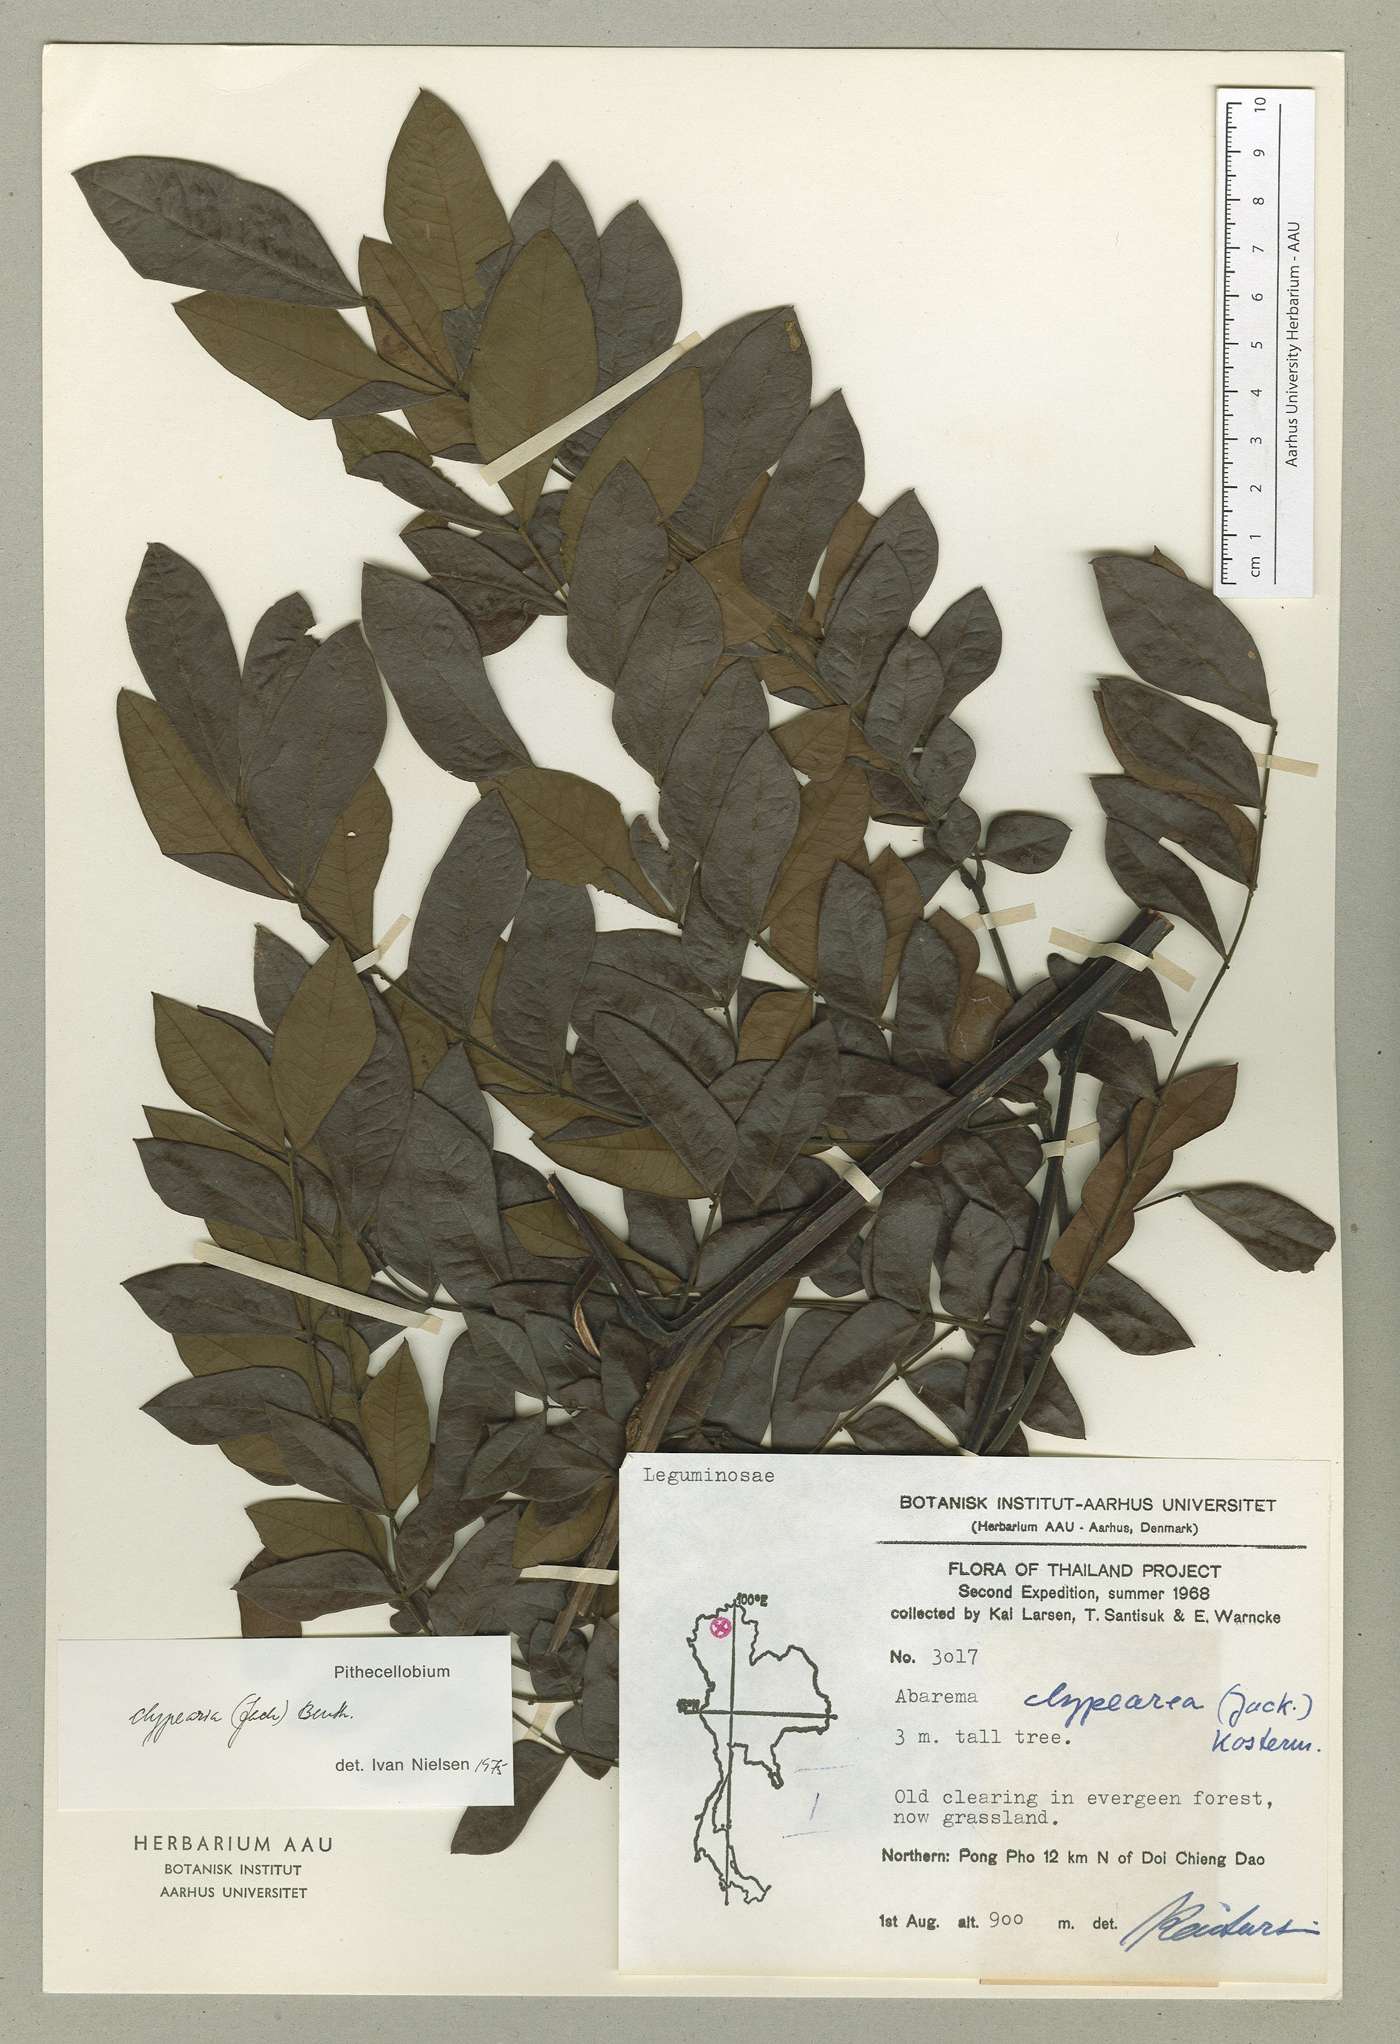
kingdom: Plantae
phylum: Tracheophyta
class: Magnoliopsida
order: Fabales
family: Fabaceae
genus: Archidendron
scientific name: Archidendron clypearia
